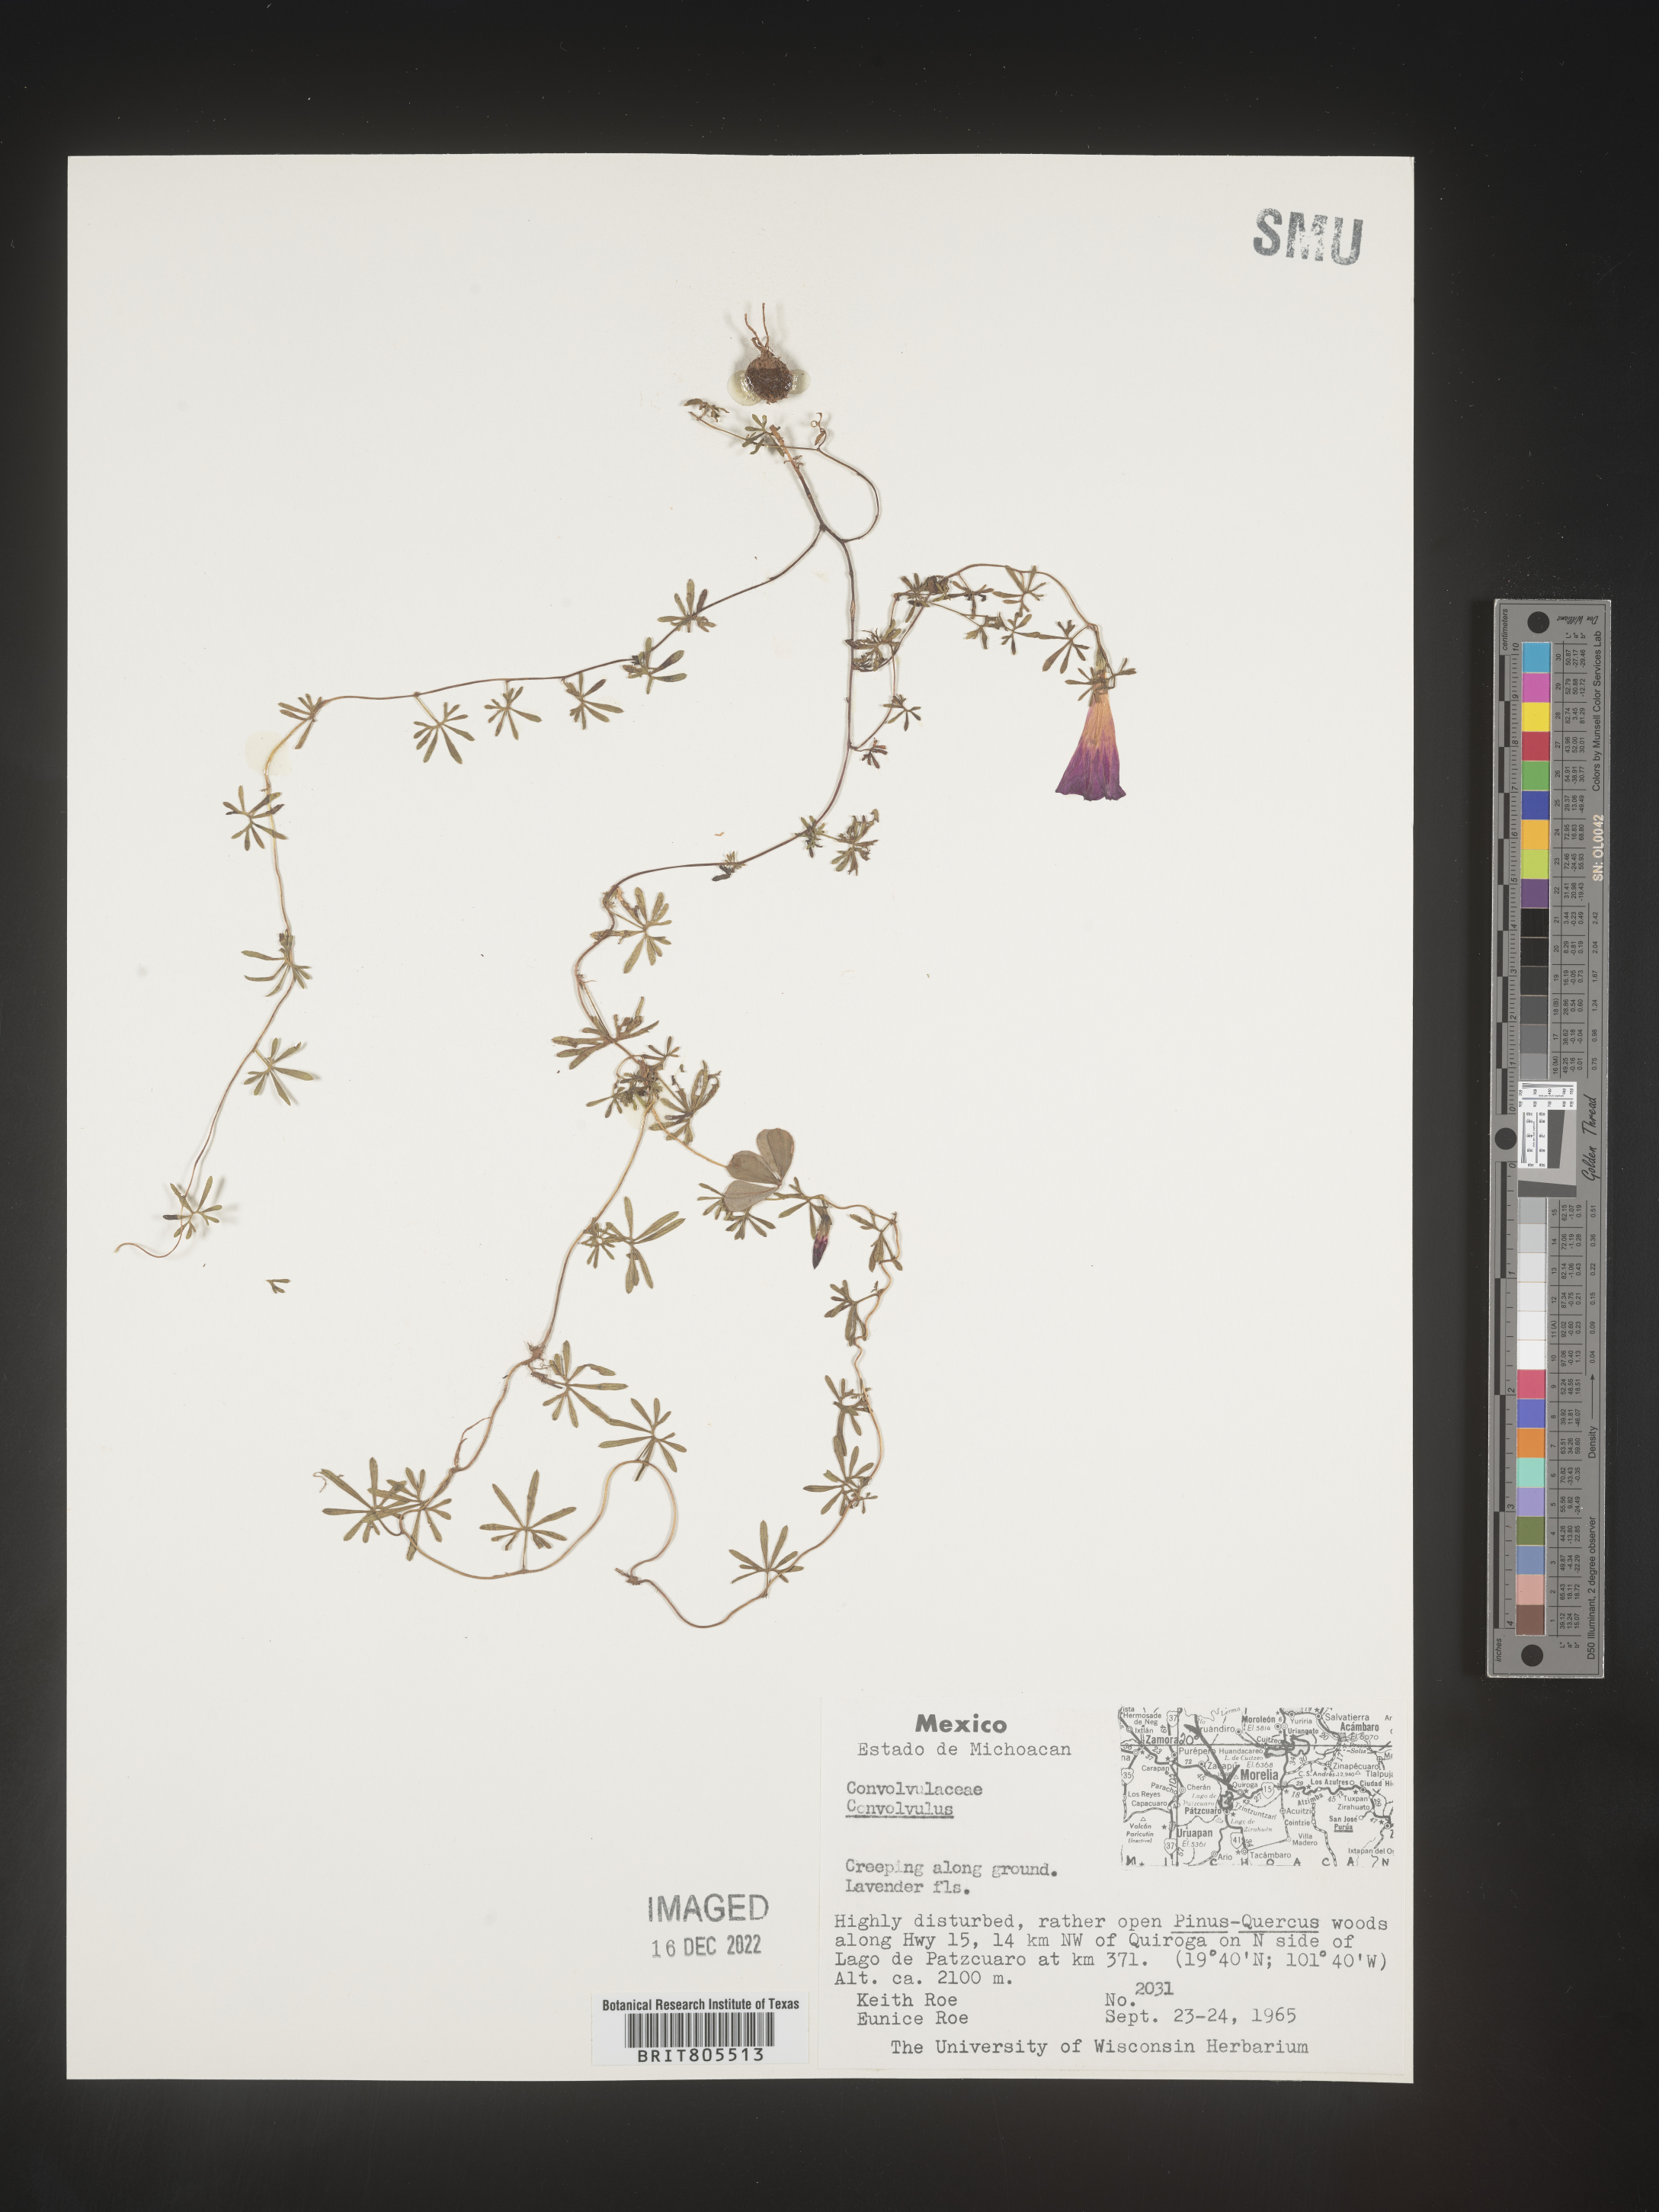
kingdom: Plantae
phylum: Tracheophyta
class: Magnoliopsida
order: Solanales
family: Convolvulaceae
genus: Ipomoea
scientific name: Ipomoea
